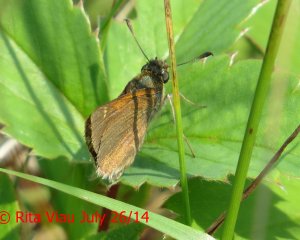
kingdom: Animalia
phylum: Arthropoda
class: Insecta
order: Lepidoptera
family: Hesperiidae
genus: Polites
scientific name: Polites themistocles
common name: Tawny-edged Skipper
